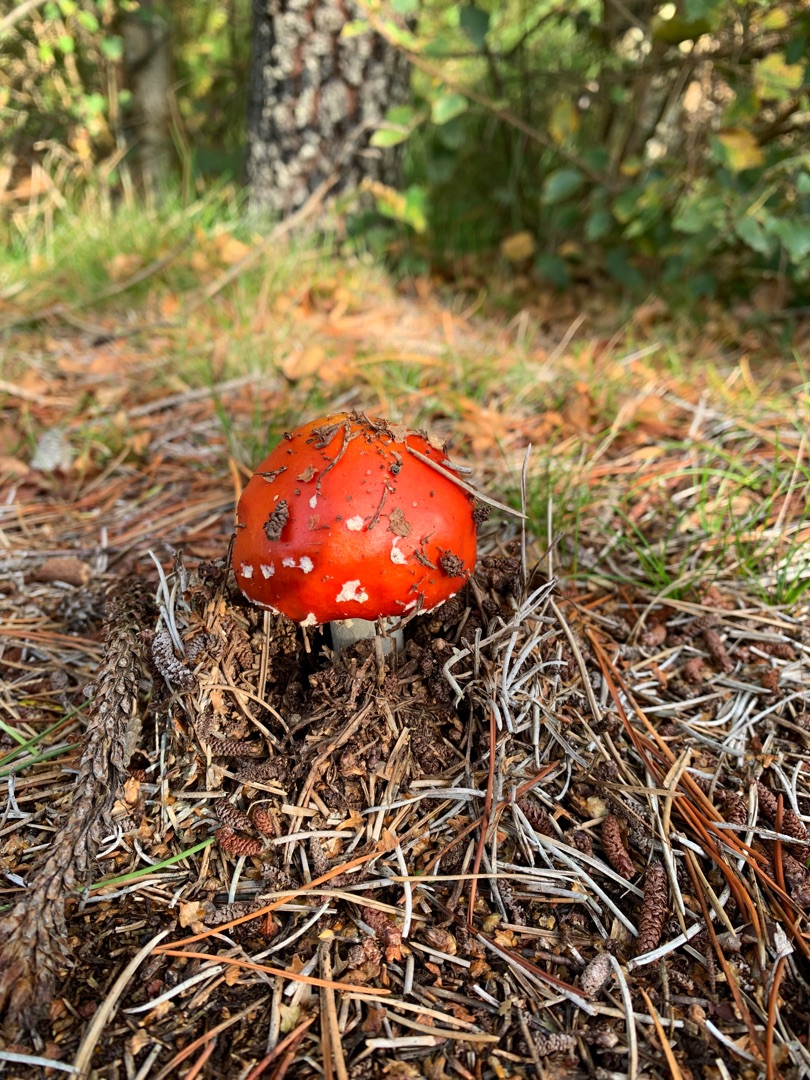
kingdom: Fungi
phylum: Basidiomycota
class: Agaricomycetes
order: Agaricales
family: Amanitaceae
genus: Amanita
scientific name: Amanita muscaria
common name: Rød fluesvamp
